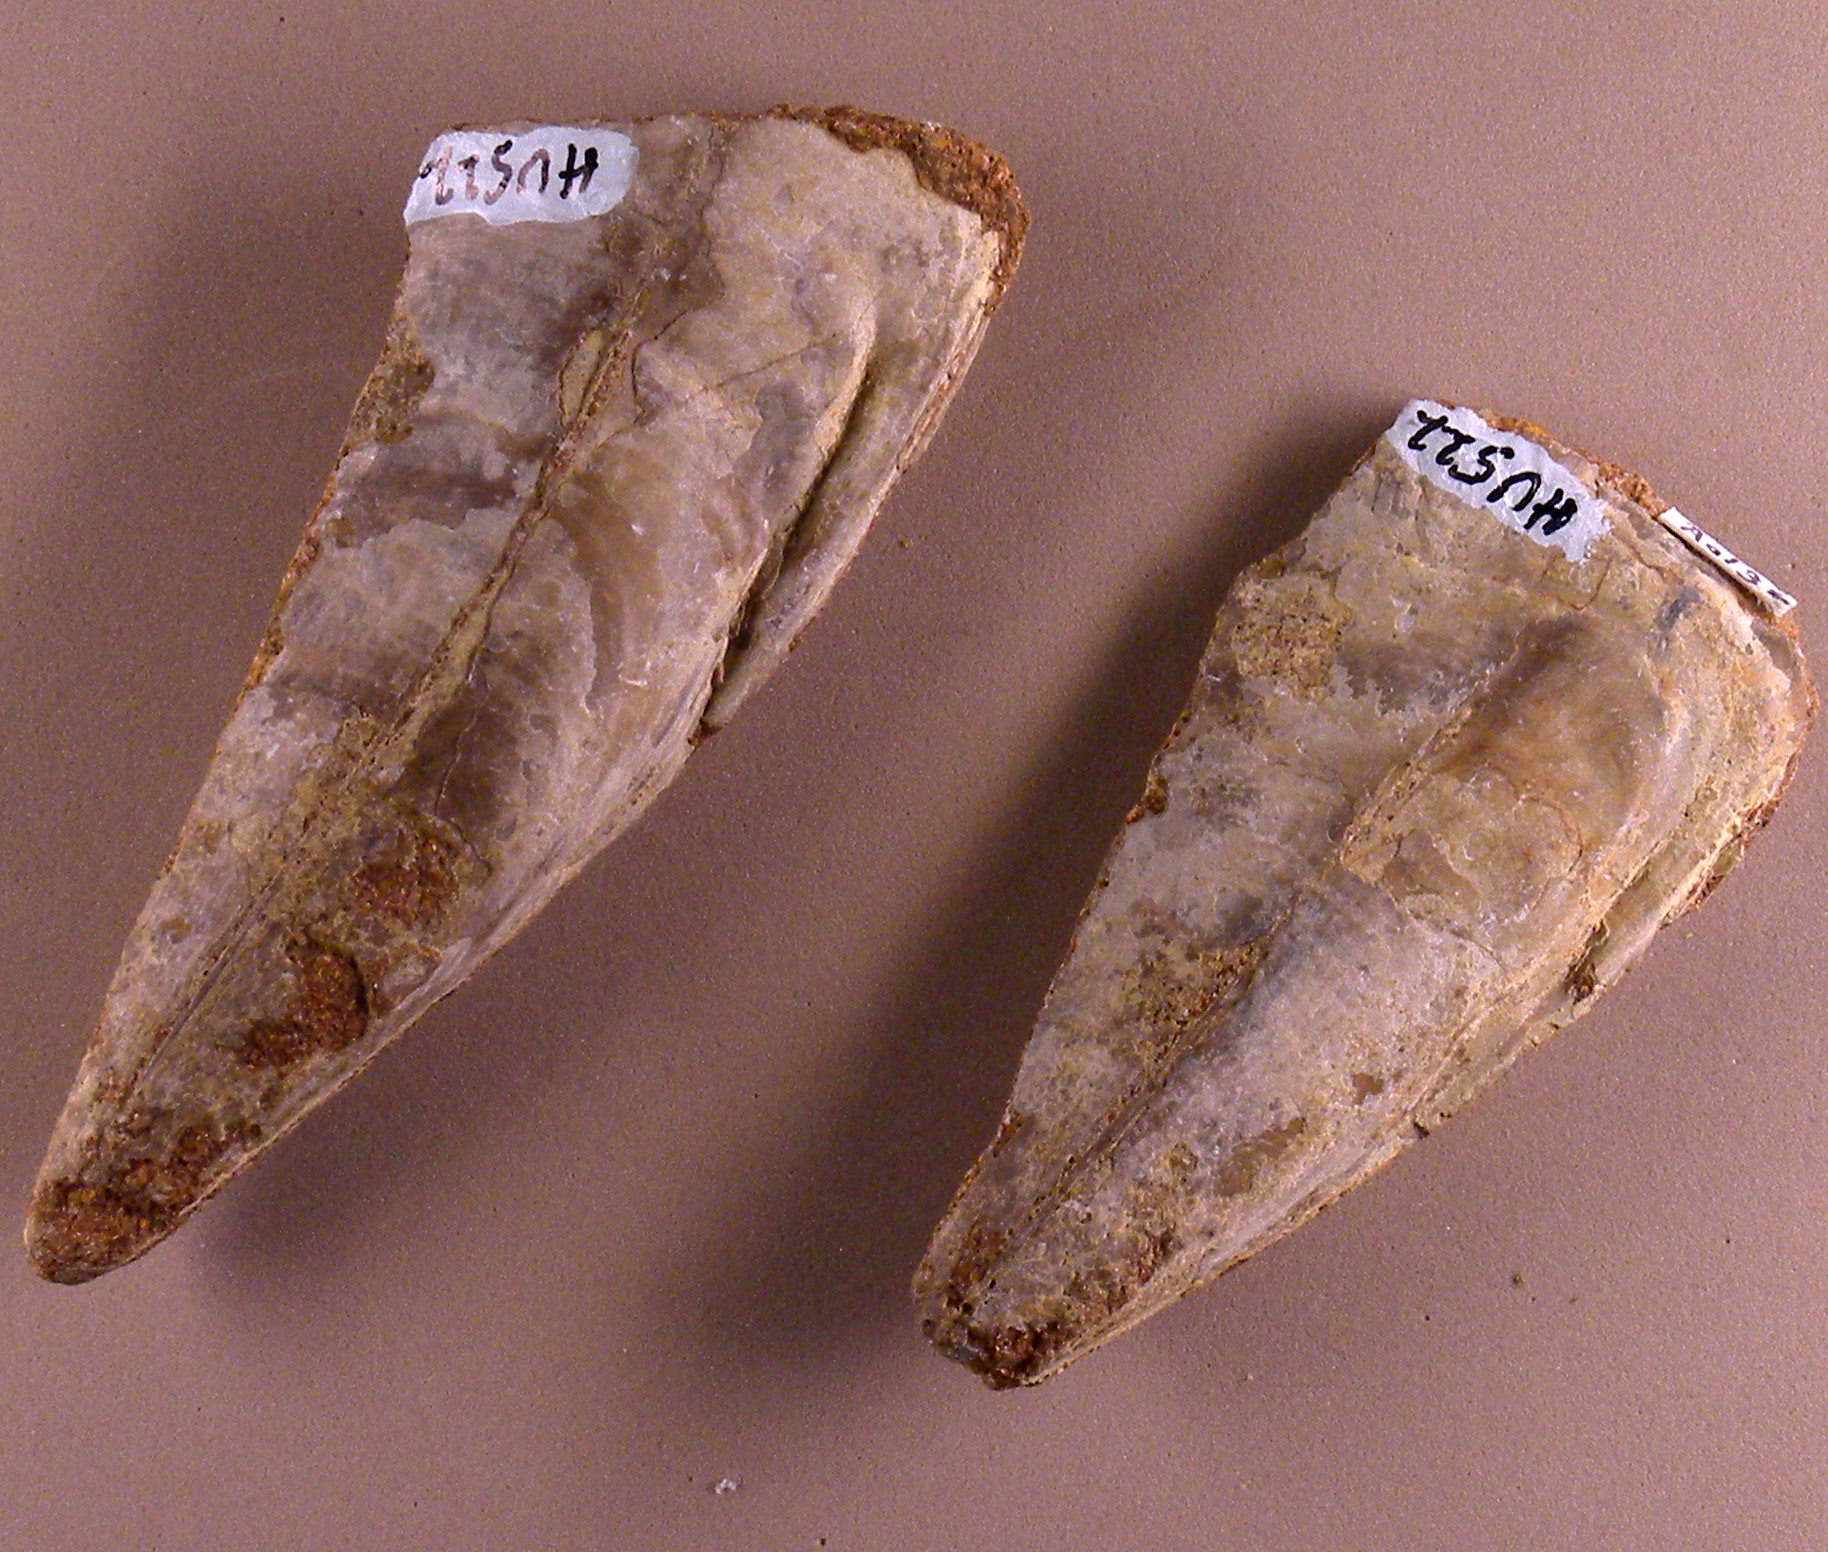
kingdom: Animalia
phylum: Mollusca
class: Bivalvia
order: Ostreida
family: Pinnidae
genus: Pinna
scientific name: Pinna
